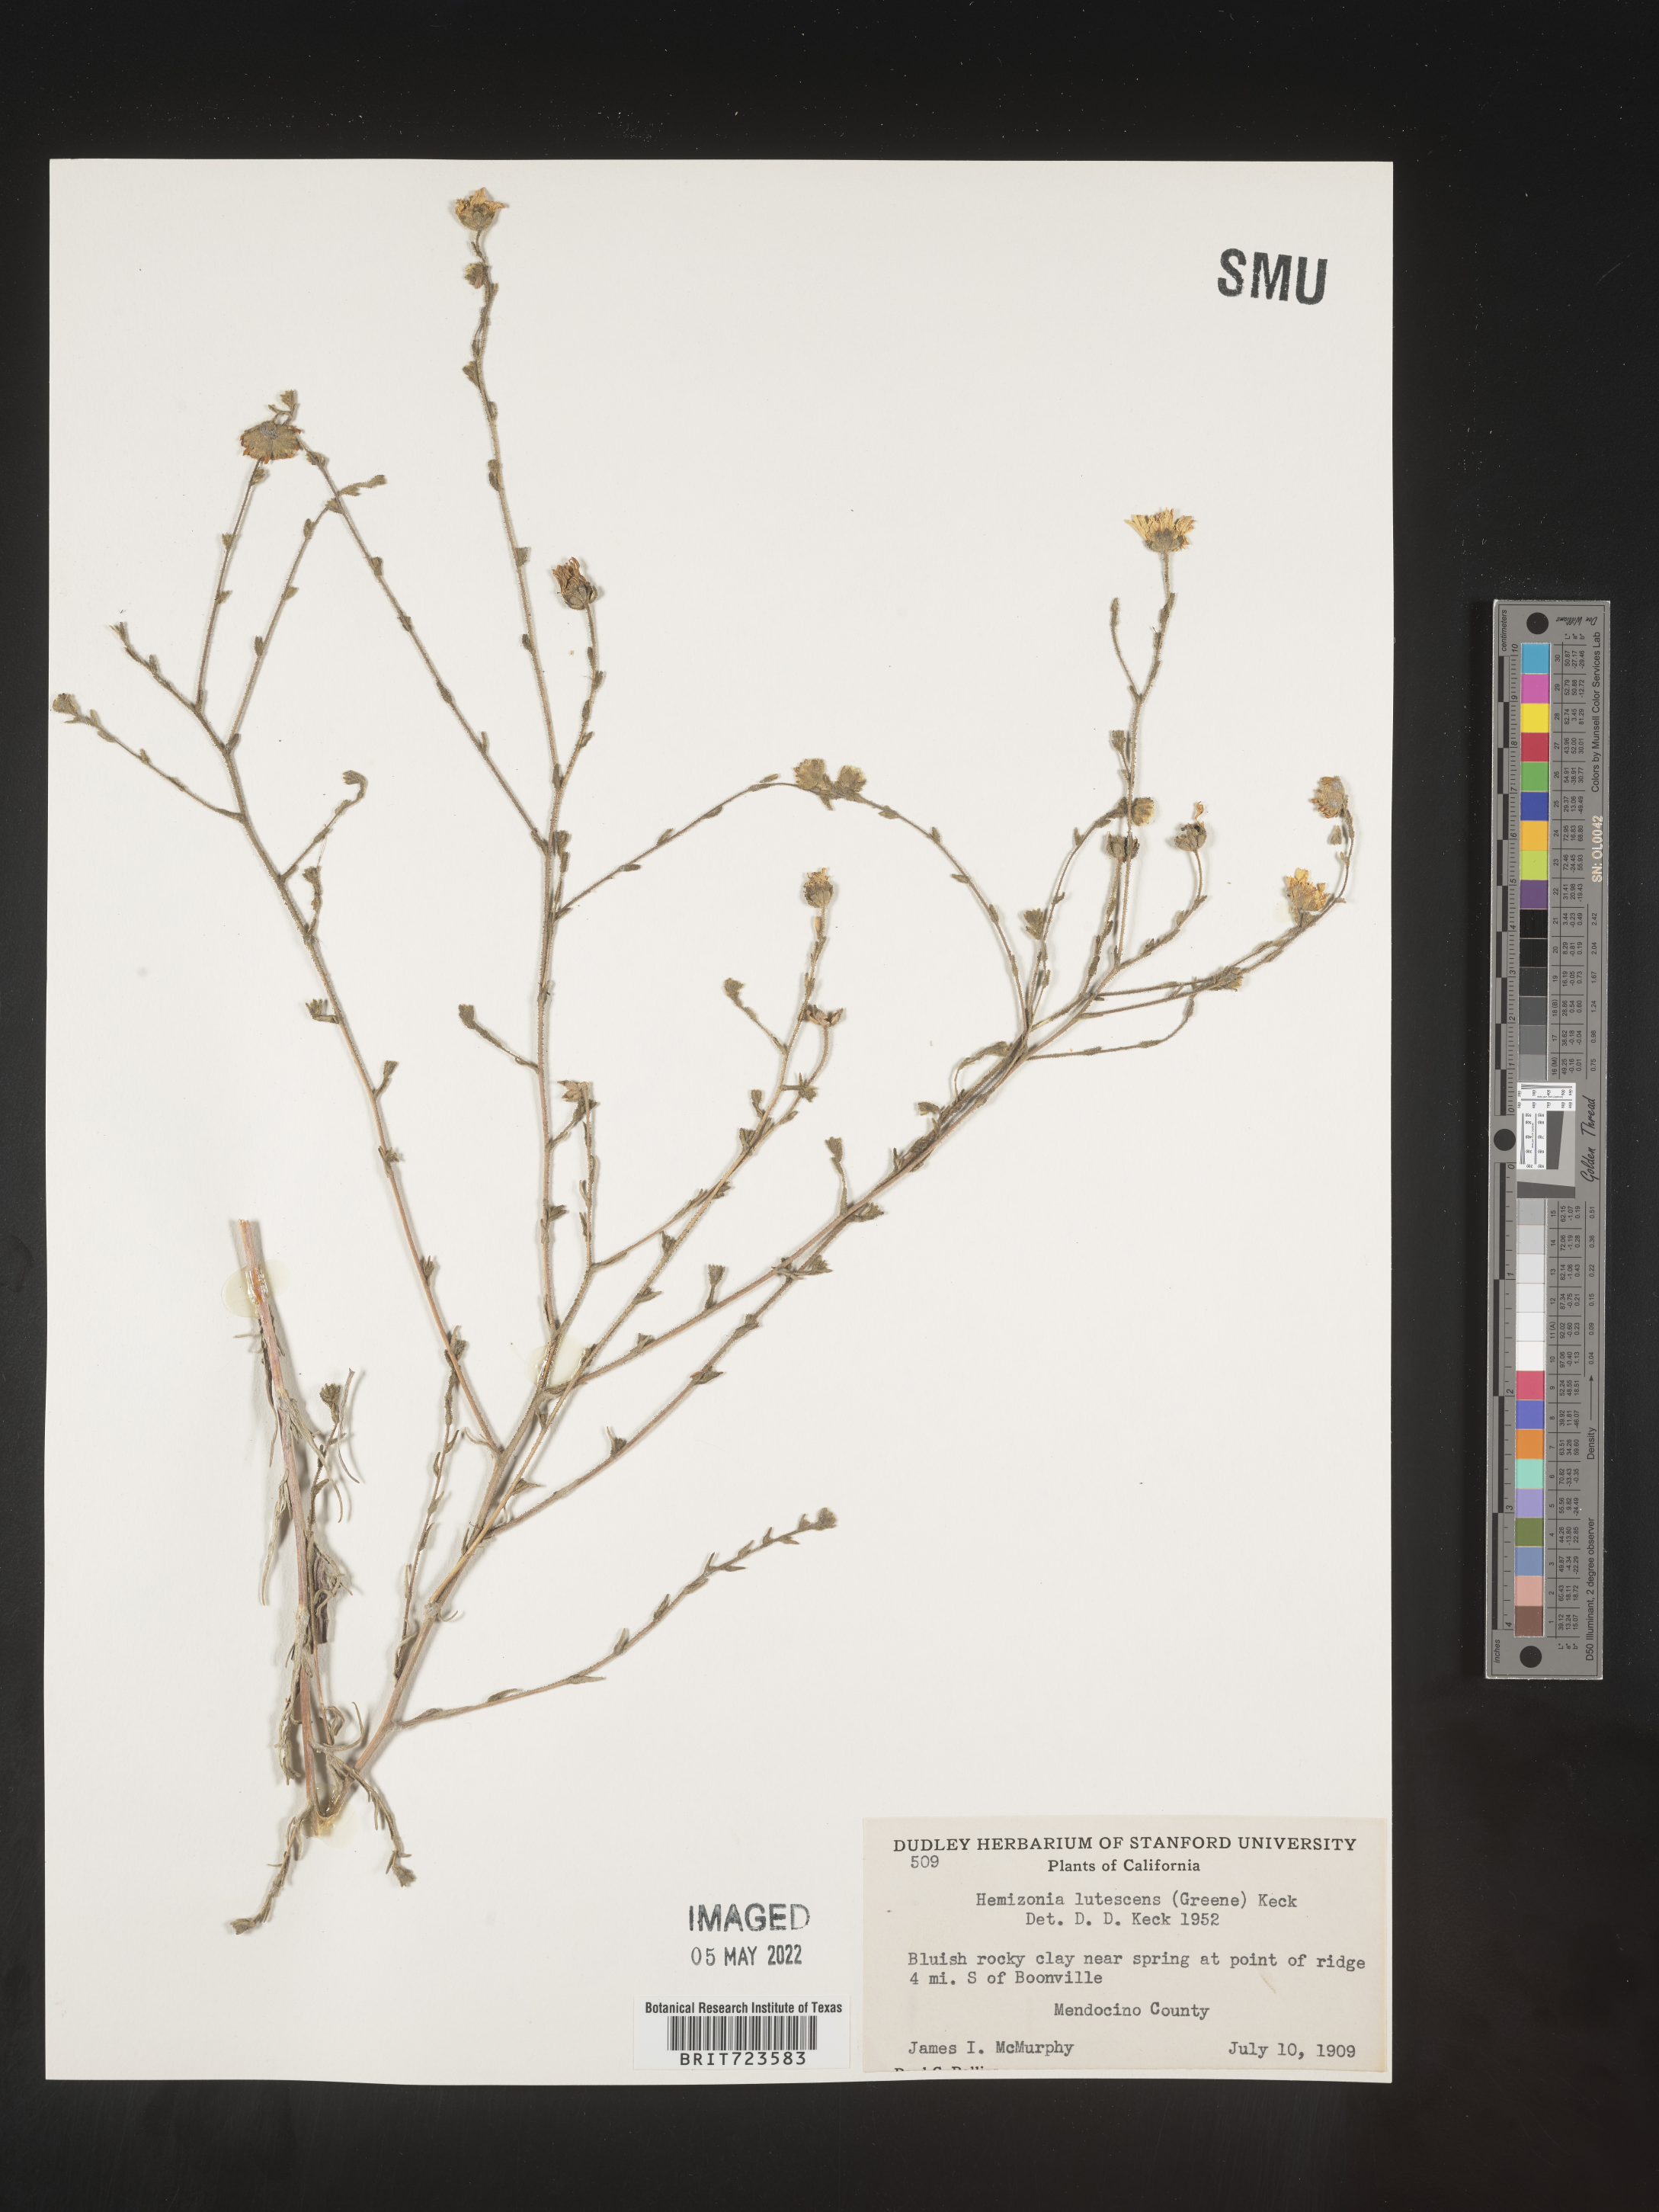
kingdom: Plantae
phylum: Tracheophyta
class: Magnoliopsida
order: Asterales
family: Asteraceae
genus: Hemizonia
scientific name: Hemizonia
